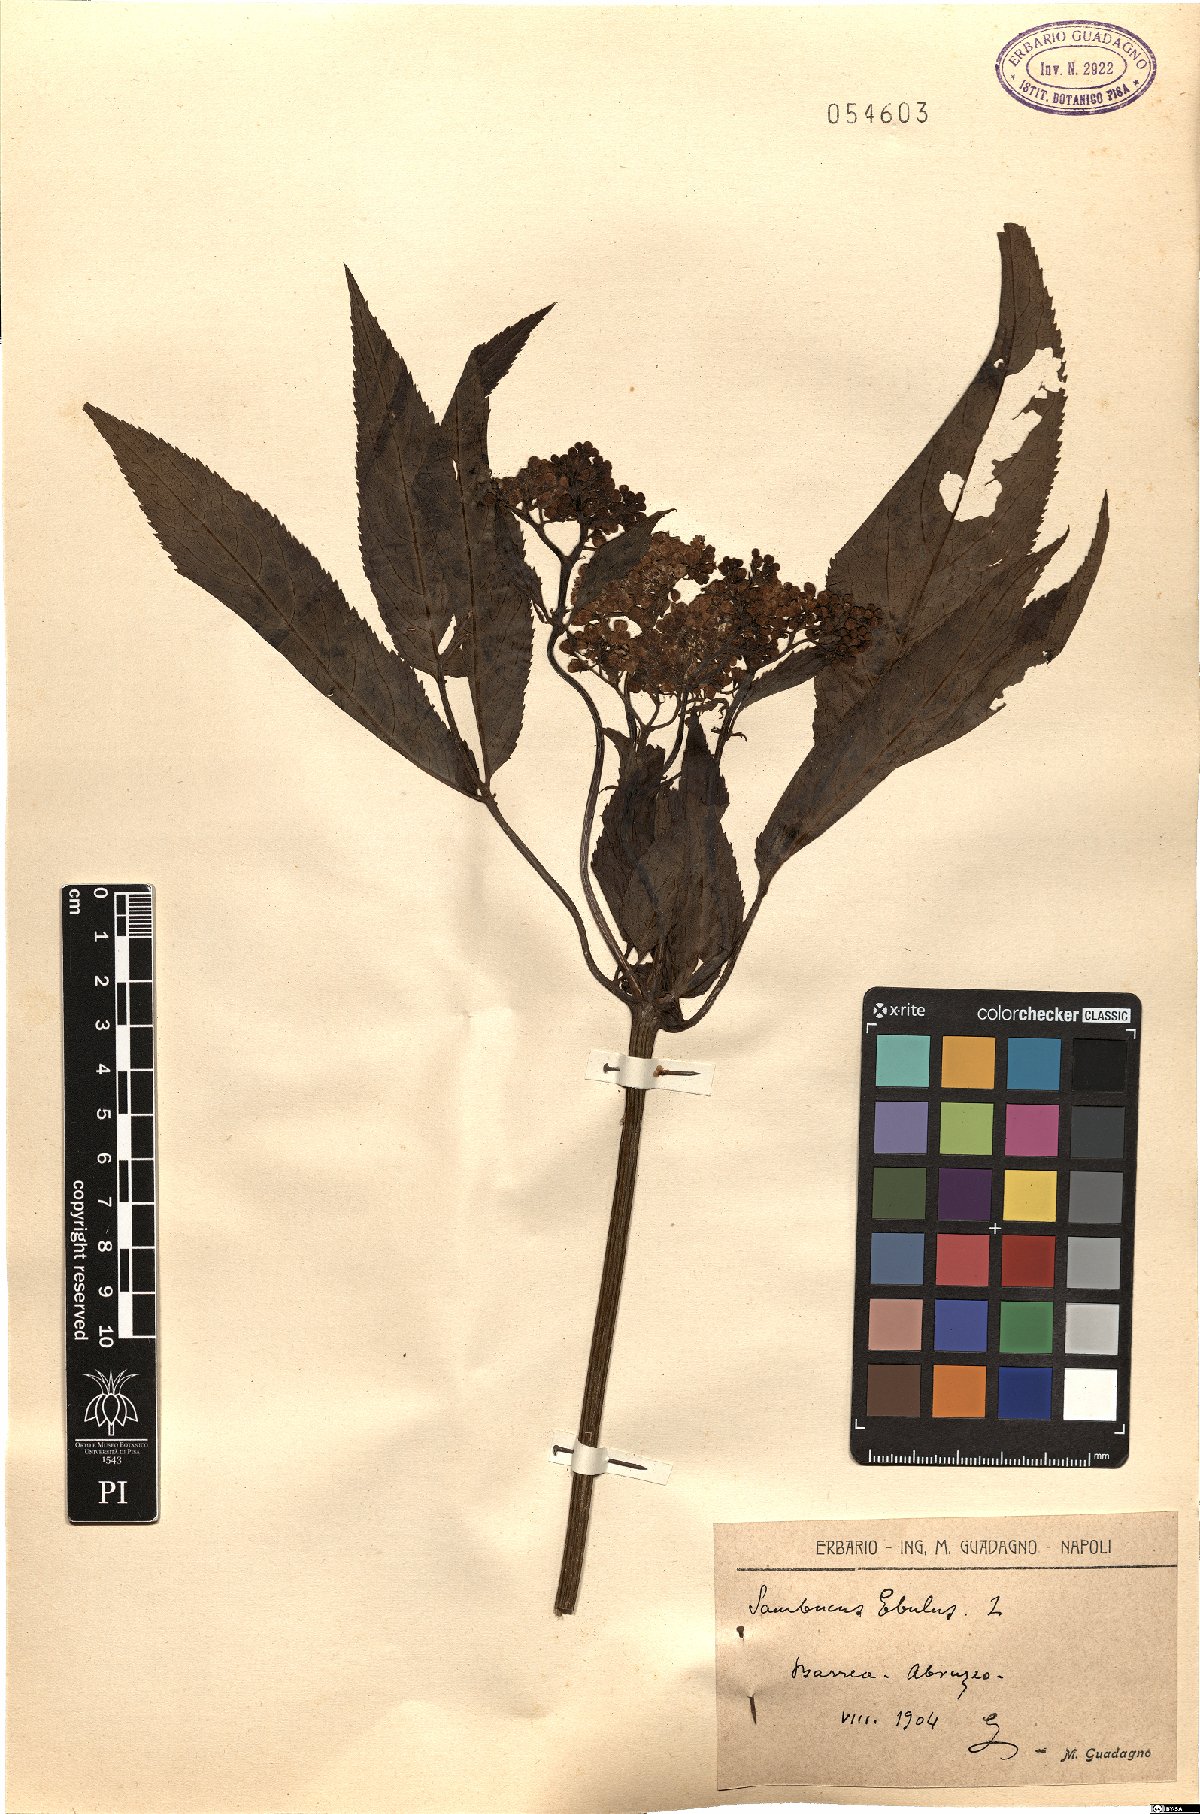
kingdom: Plantae
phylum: Tracheophyta
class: Magnoliopsida
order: Dipsacales
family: Viburnaceae
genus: Sambucus
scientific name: Sambucus ebulus
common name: Dwarf elder
